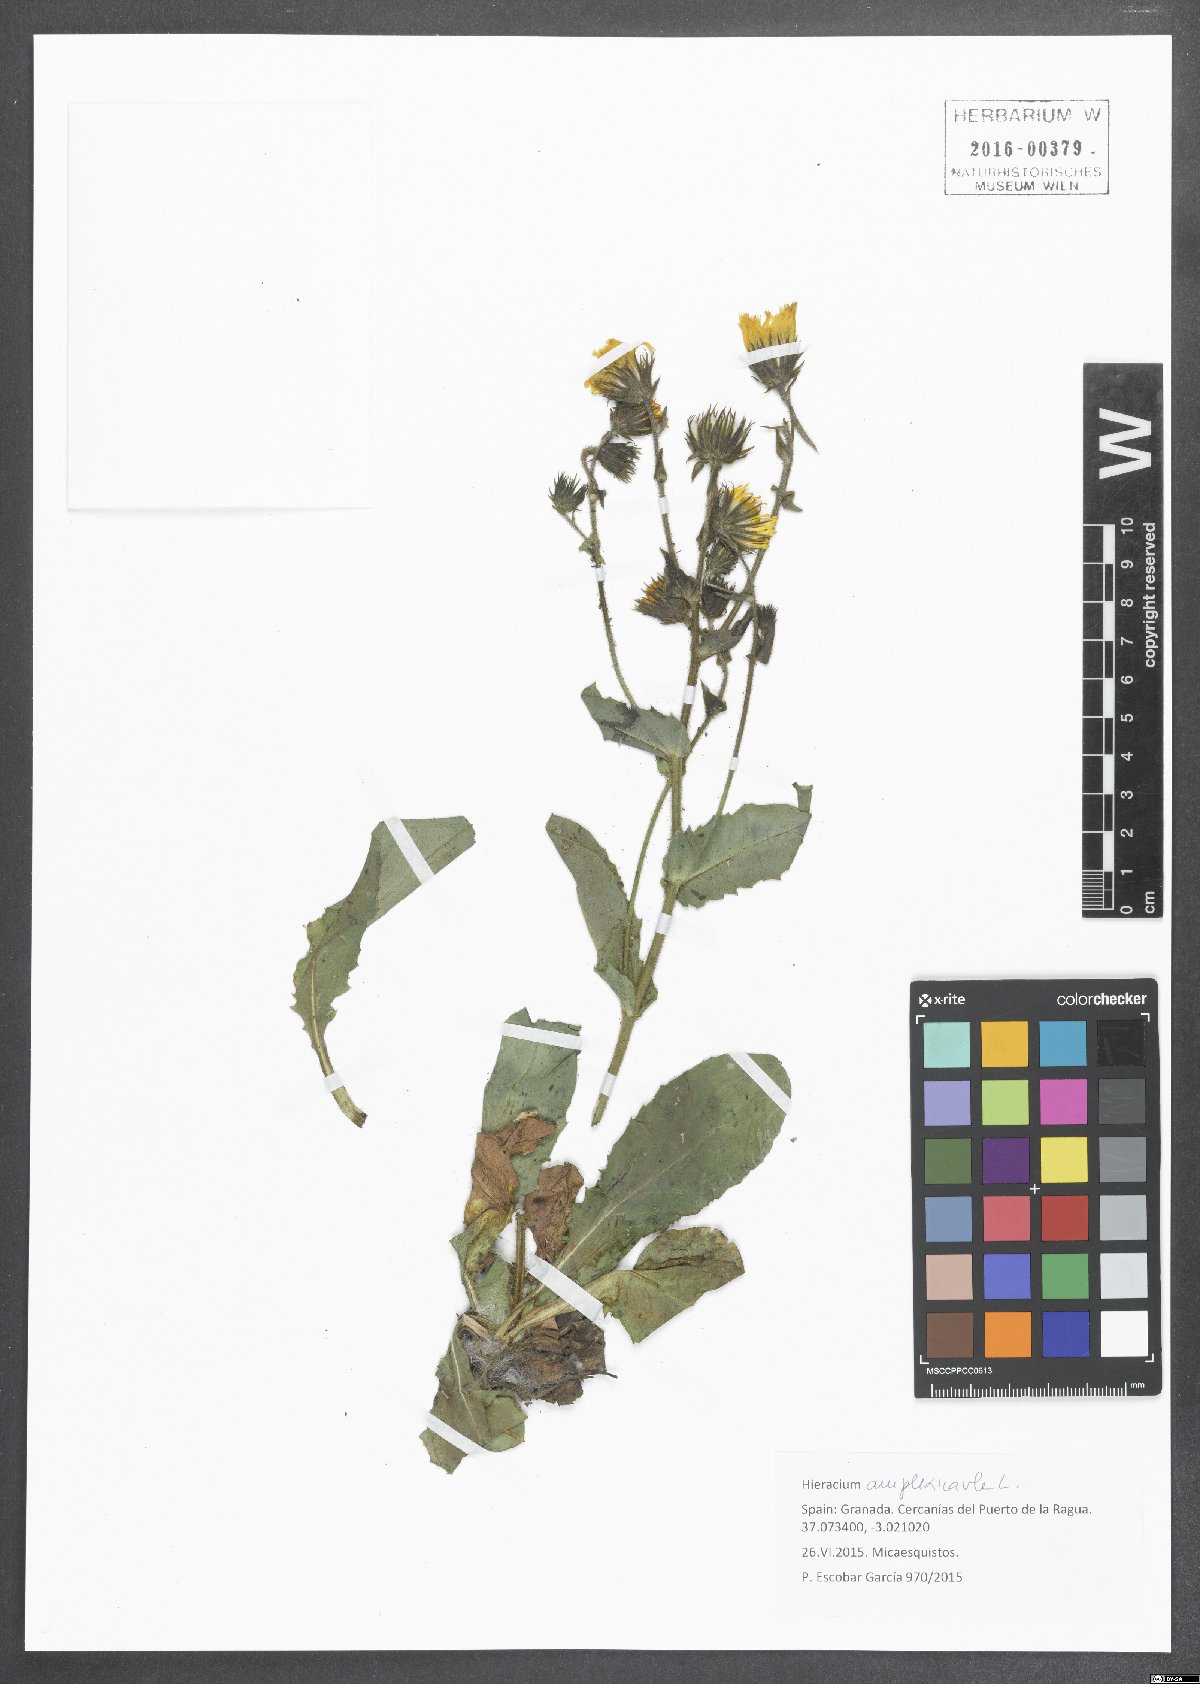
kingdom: Plantae
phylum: Tracheophyta
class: Magnoliopsida
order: Asterales
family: Asteraceae
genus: Hieracium
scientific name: Hieracium amplexicaule
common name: Sticky hawkweed
